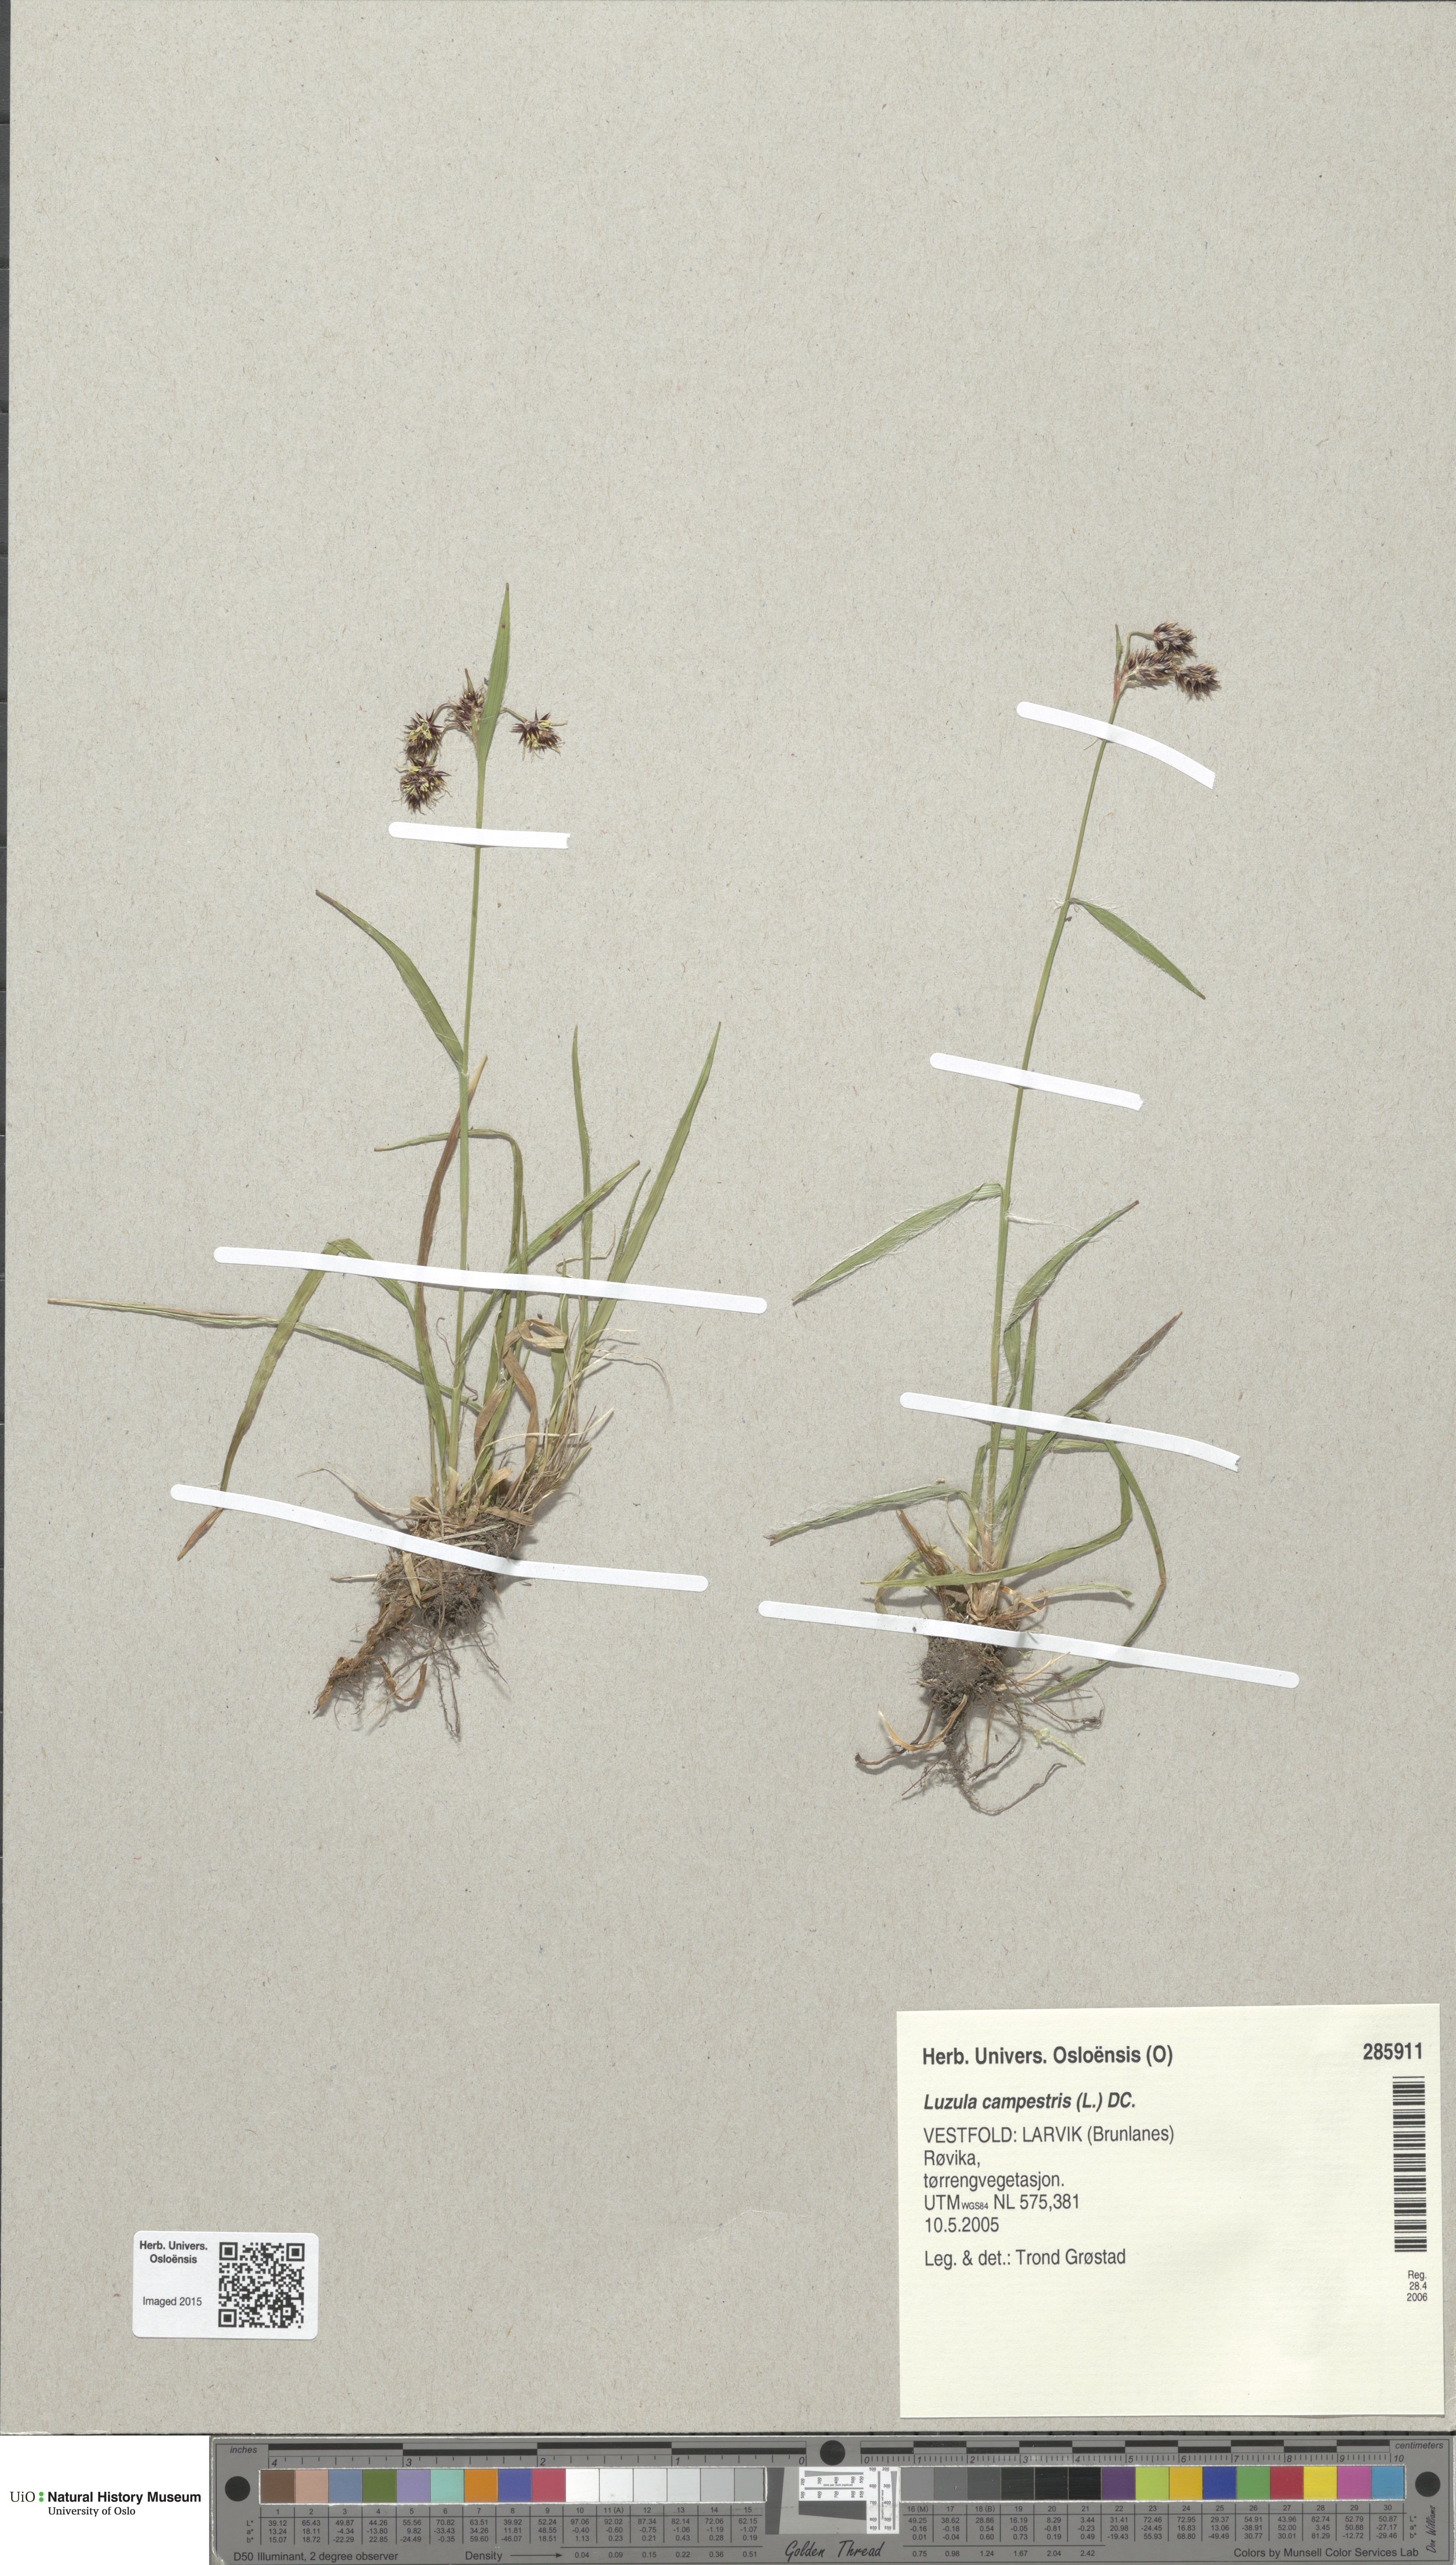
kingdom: Plantae
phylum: Tracheophyta
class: Liliopsida
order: Poales
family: Juncaceae
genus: Luzula
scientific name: Luzula campestris
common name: Field wood-rush
